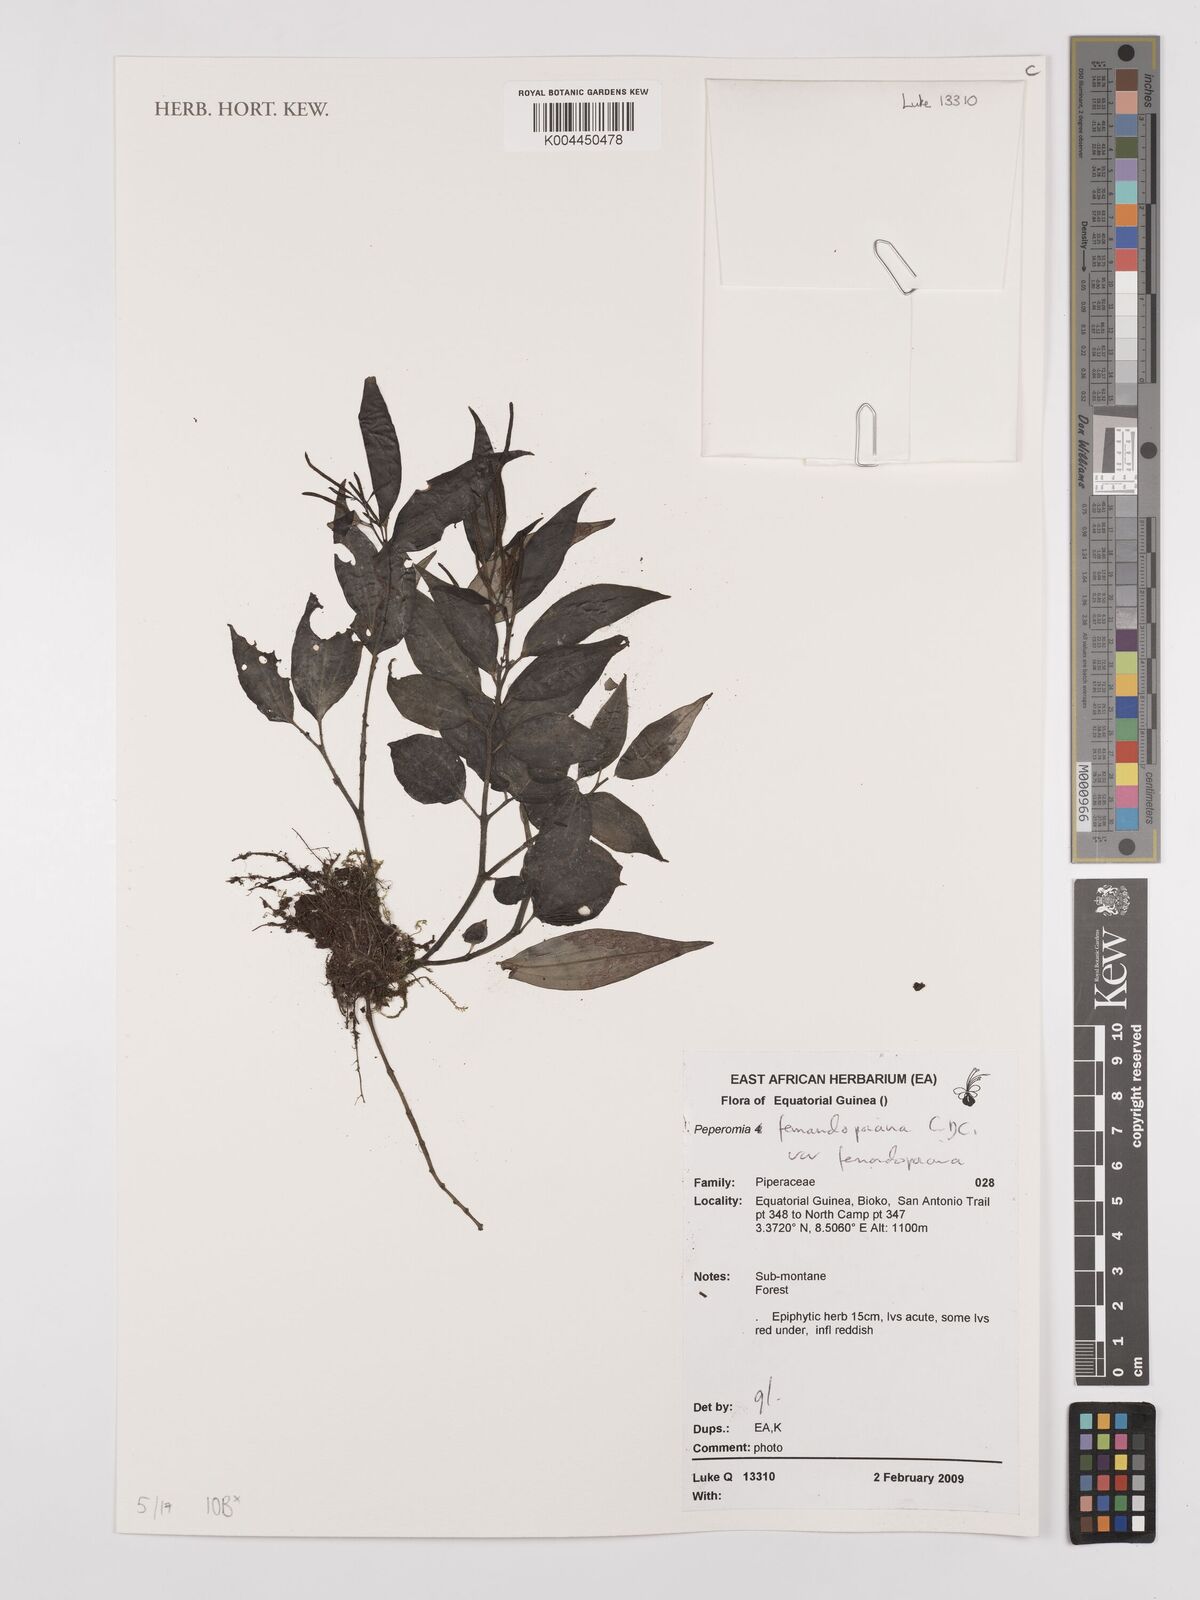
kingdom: Plantae
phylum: Tracheophyta
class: Magnoliopsida
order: Piperales
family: Piperaceae
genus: Peperomia
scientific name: Peperomia fernandopoiana
